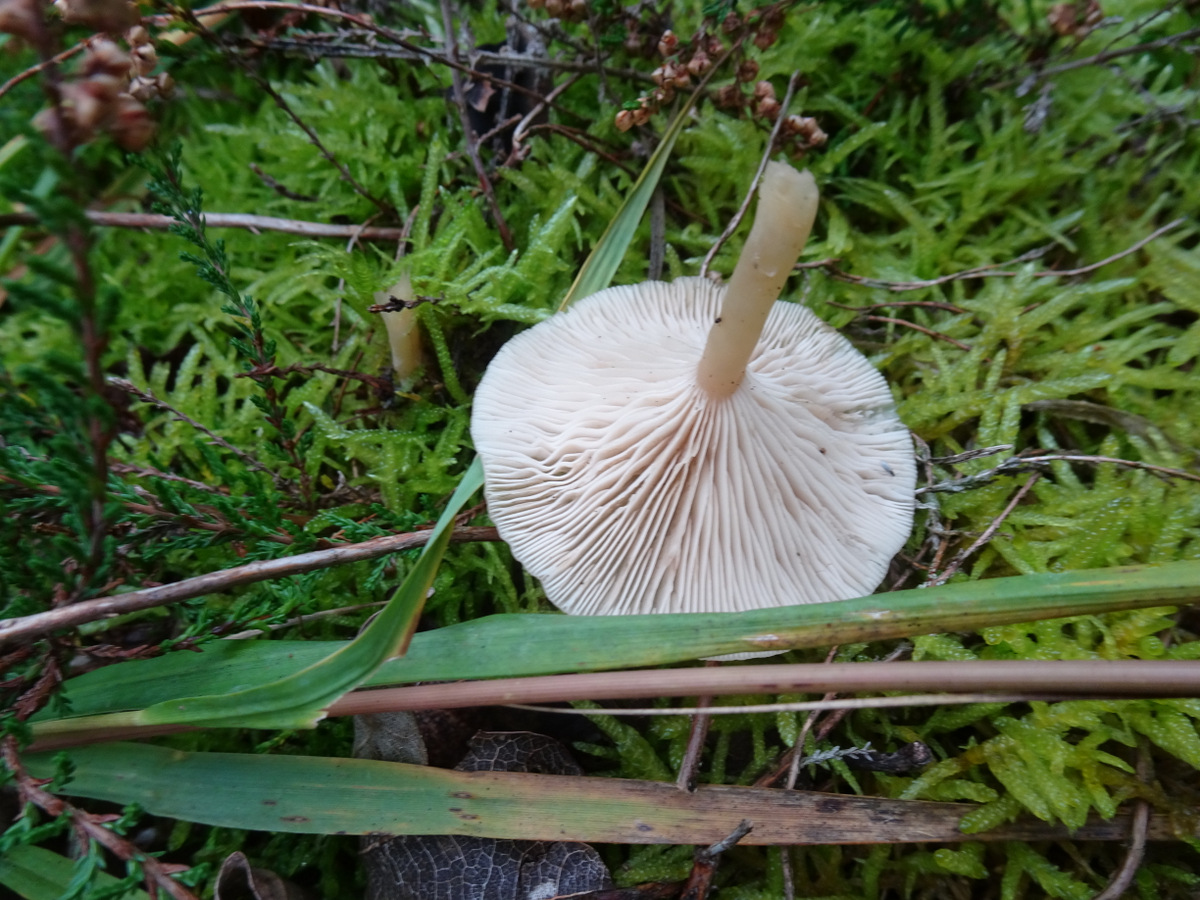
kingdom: Fungi
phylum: Basidiomycota
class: Agaricomycetes
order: Agaricales
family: Tricholomataceae
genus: Clitocybe
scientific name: Clitocybe fragrans
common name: vellugtende tragthat
